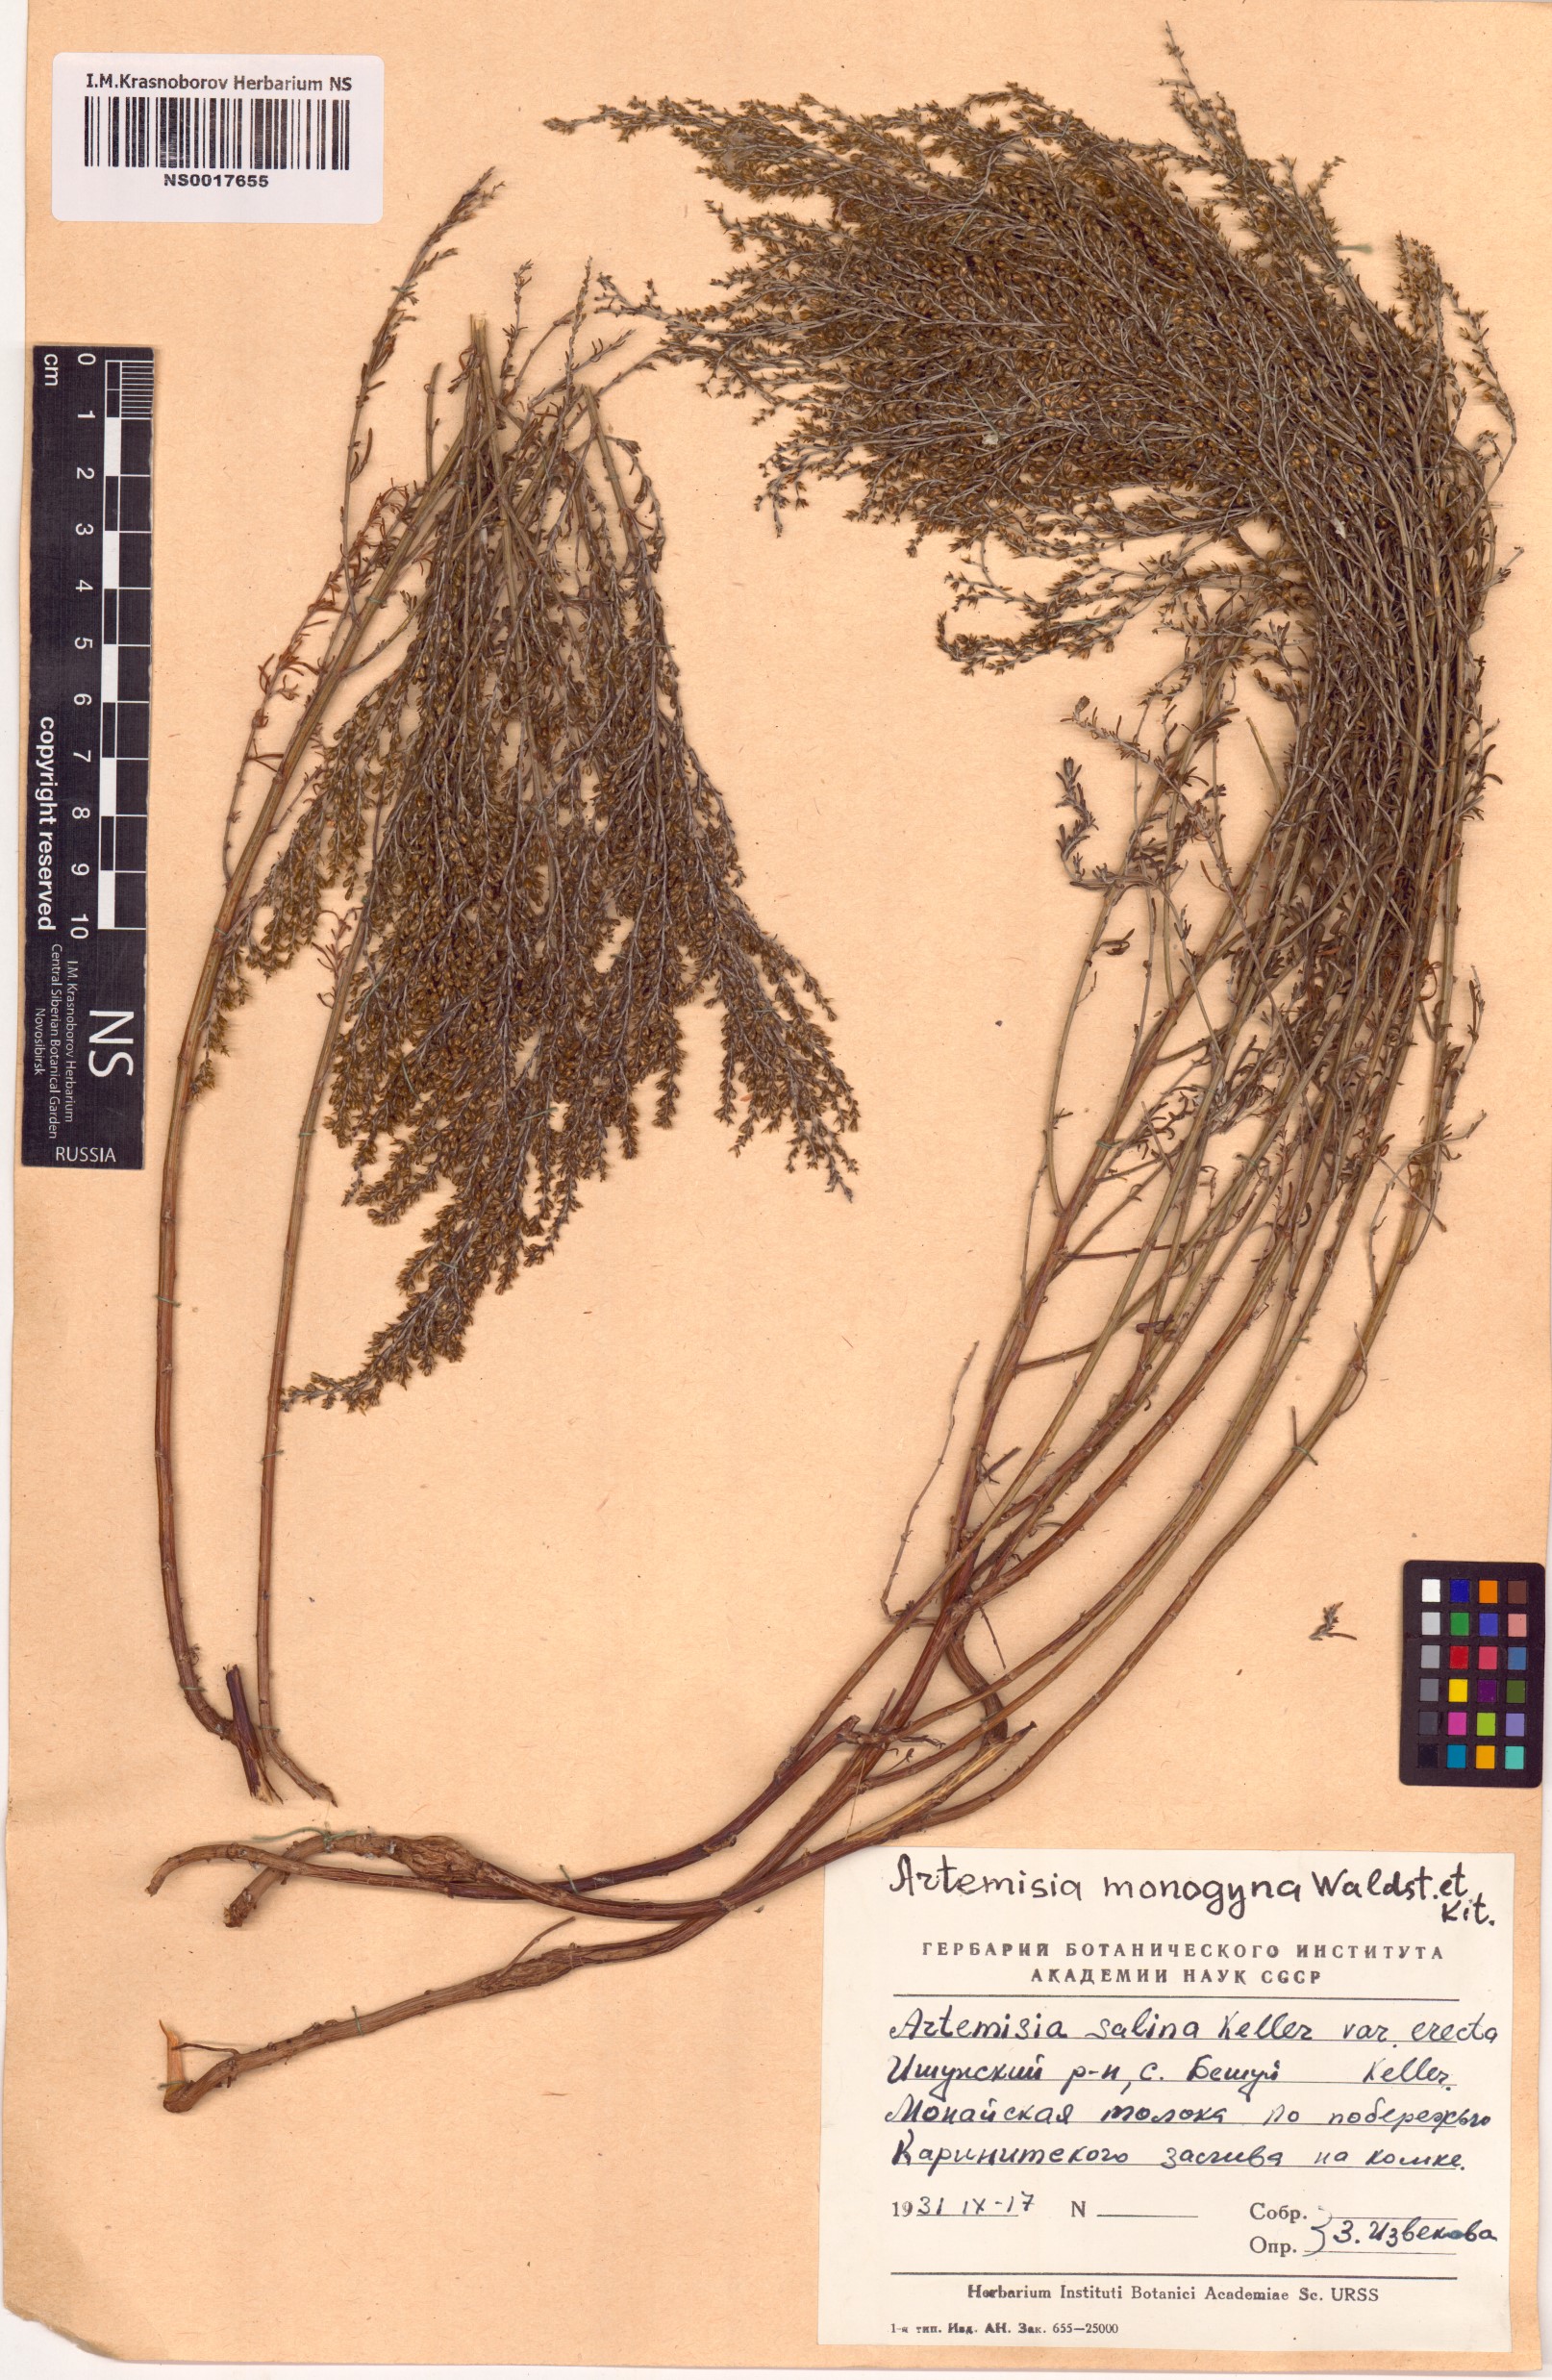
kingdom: Plantae
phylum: Tracheophyta
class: Magnoliopsida
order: Asterales
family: Asteraceae
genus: Artemisia
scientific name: Artemisia
